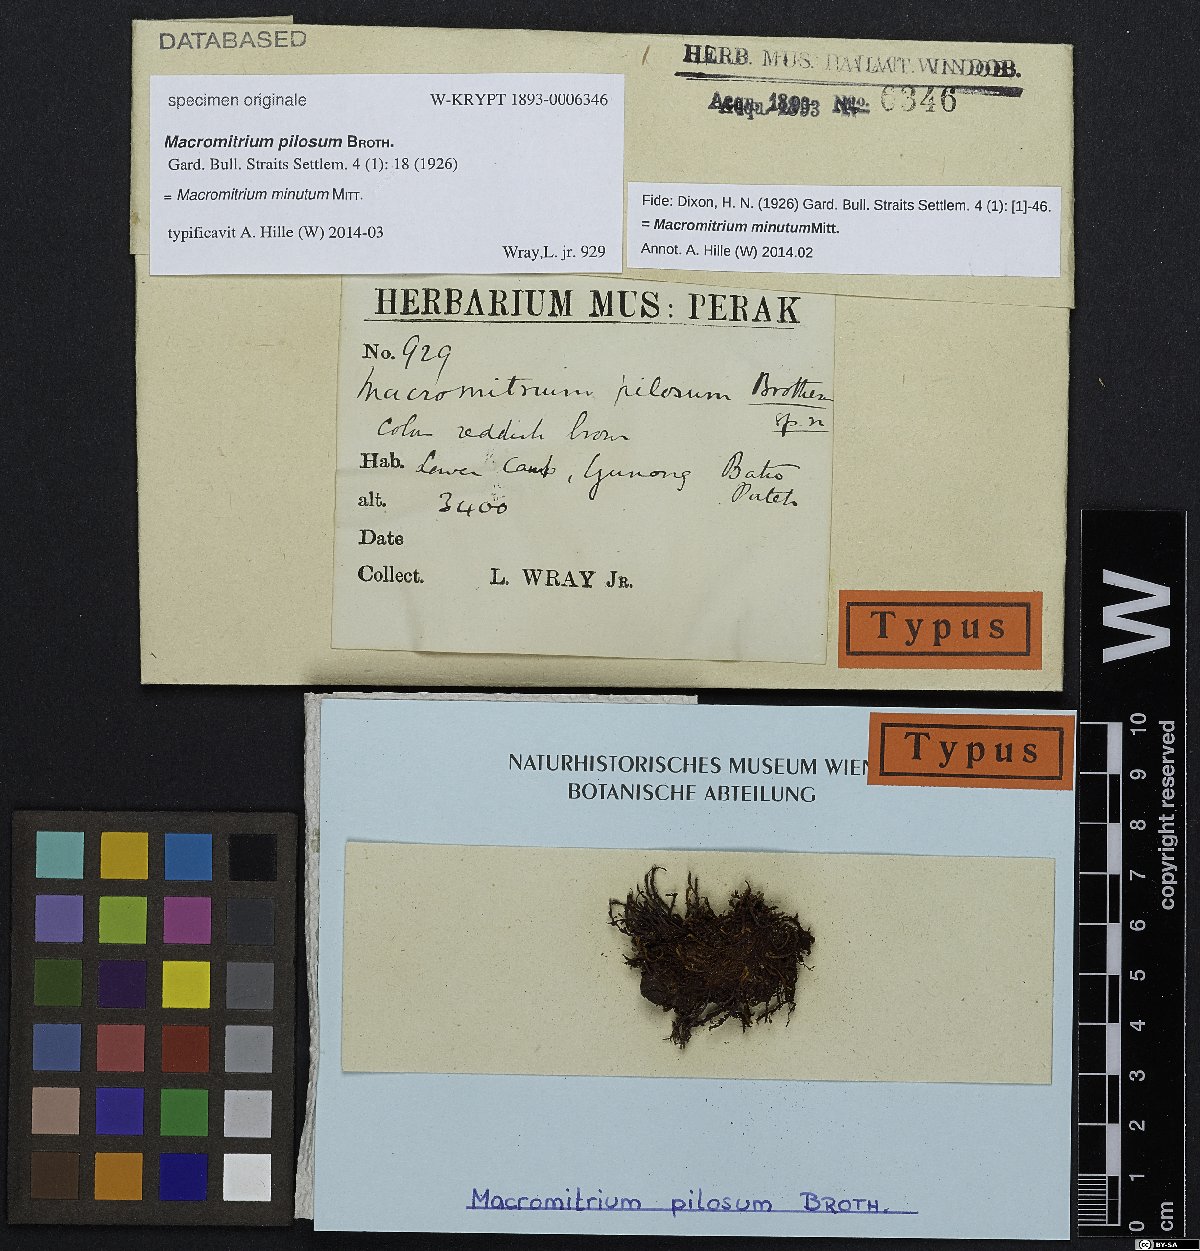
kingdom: Plantae
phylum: Bryophyta
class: Bryopsida
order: Orthotrichales
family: Orthotrichaceae
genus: Macromitrium
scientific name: Macromitrium pilosum
